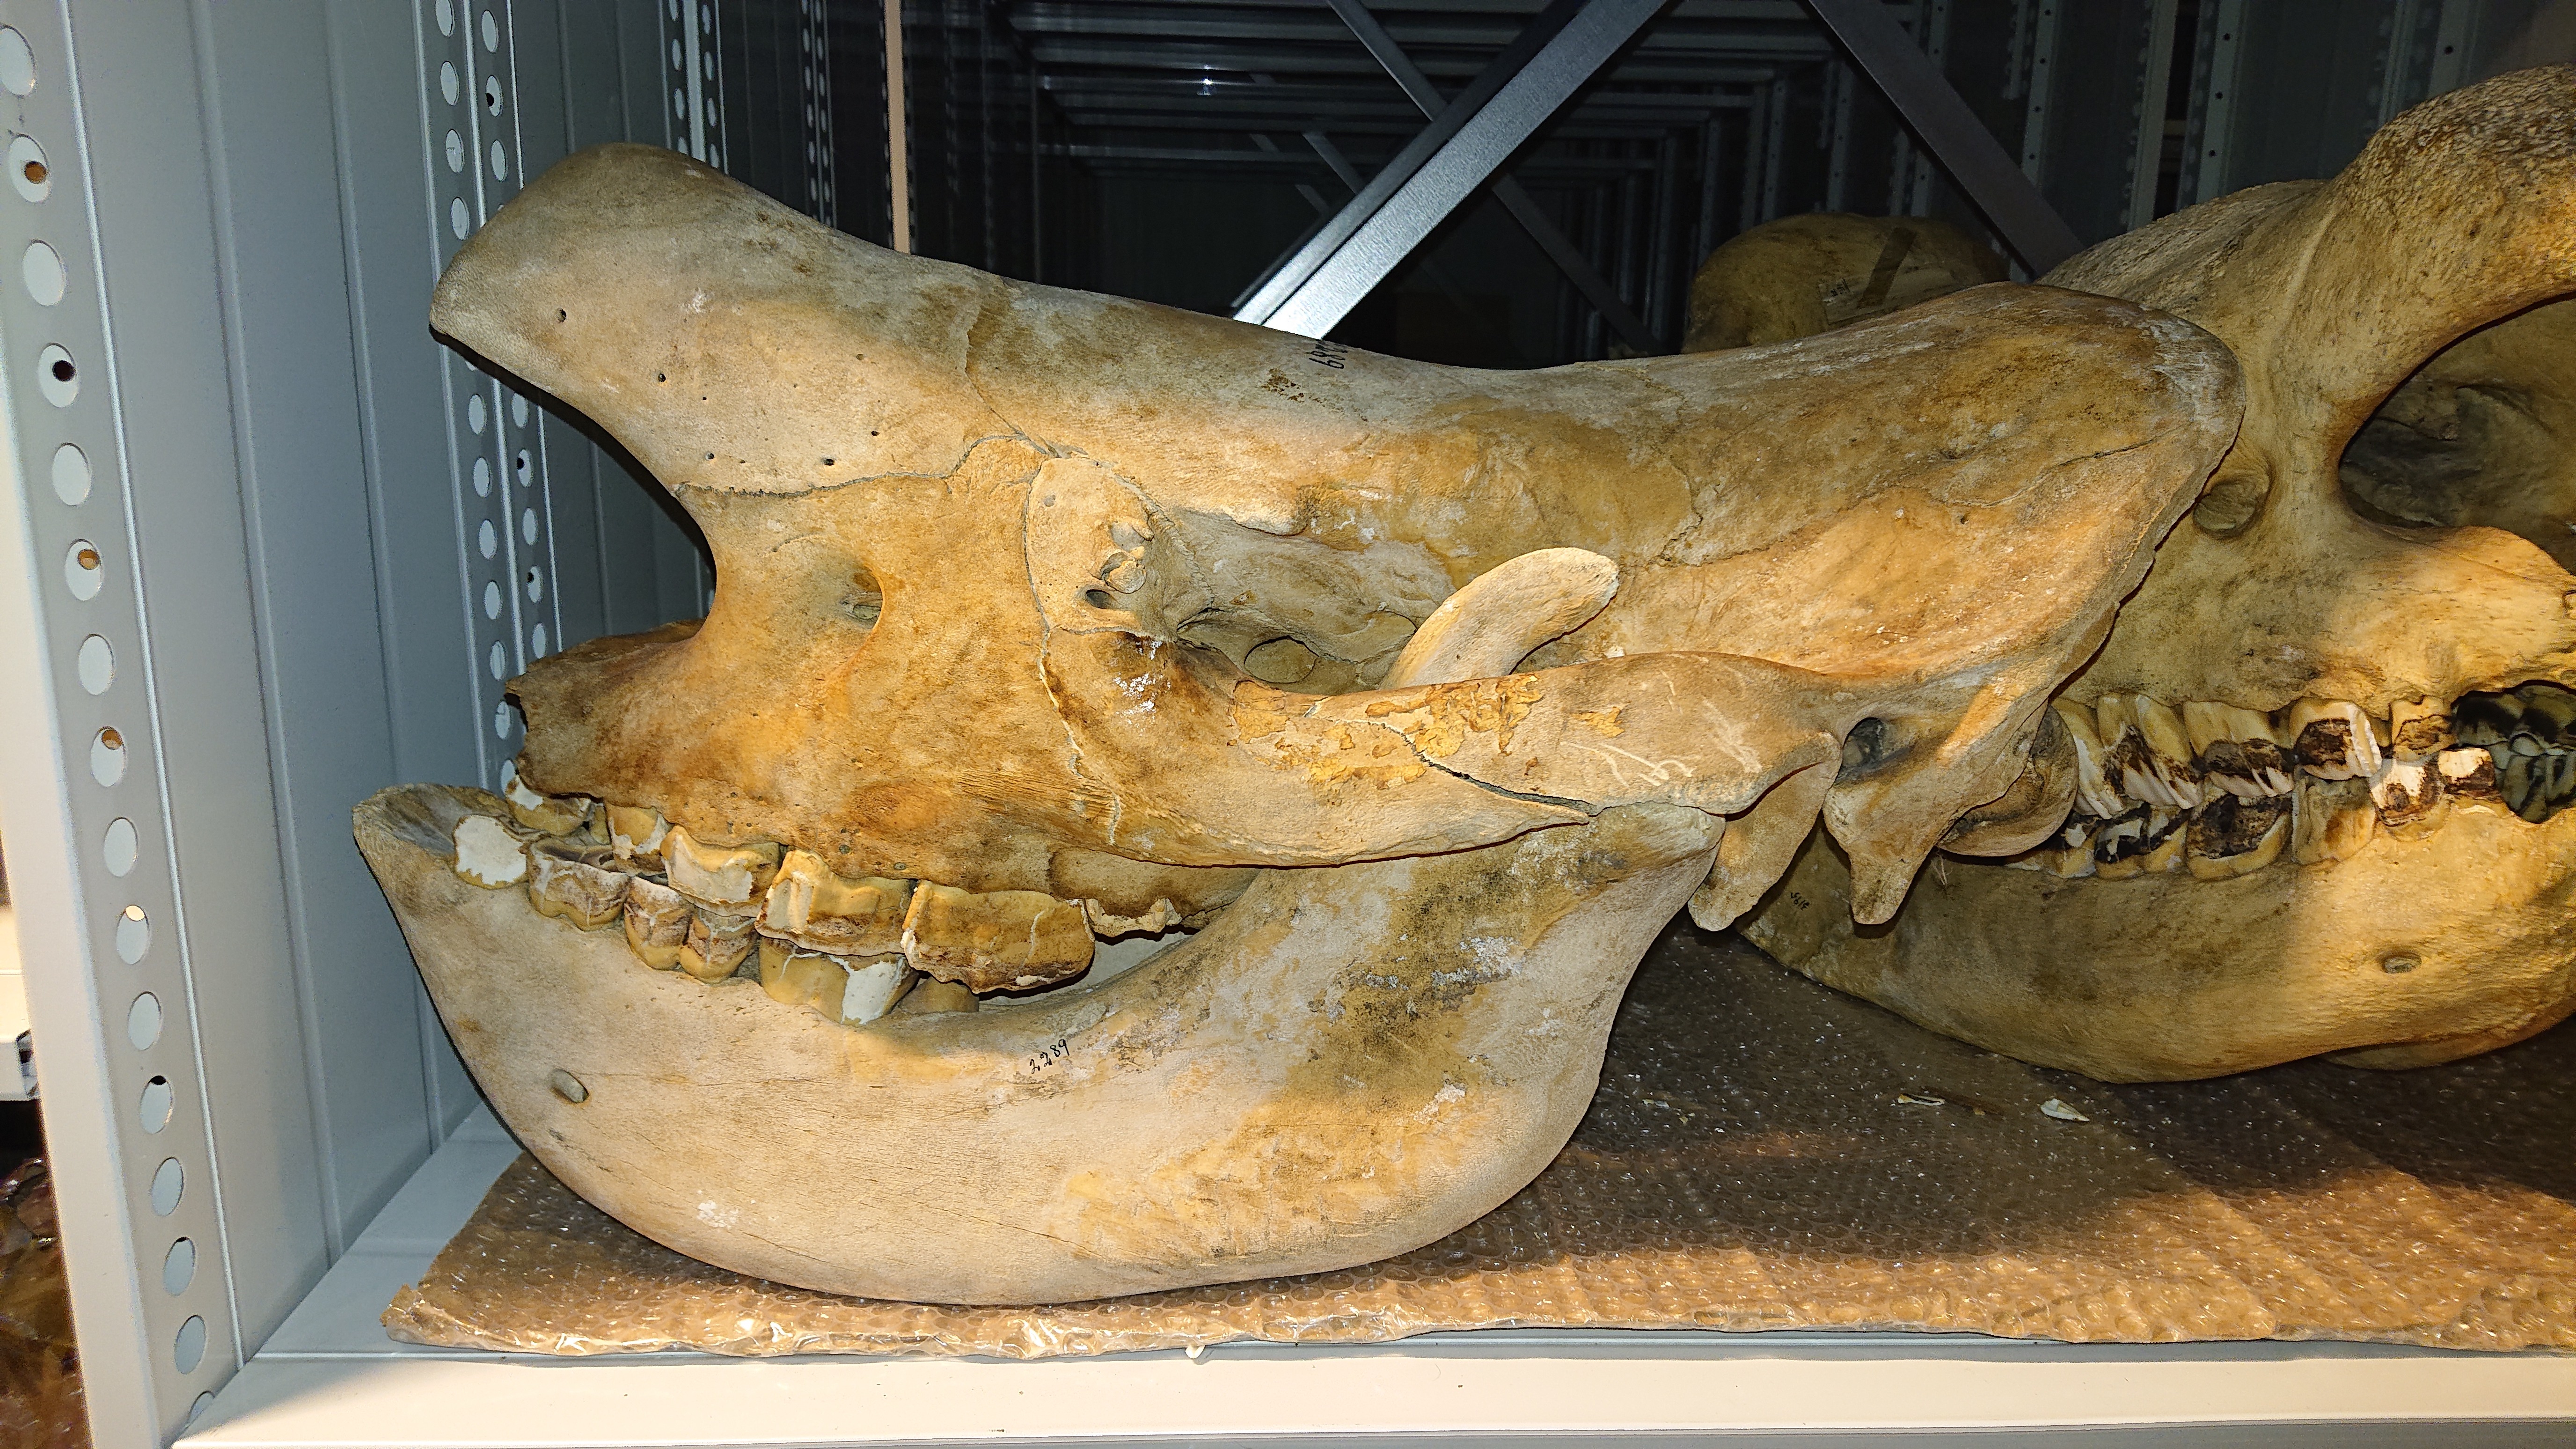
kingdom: Animalia
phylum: Chordata
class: Mammalia
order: Perissodactyla
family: Rhinocerotidae
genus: Ceratotherium
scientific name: Ceratotherium simum
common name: White rhinoceros
